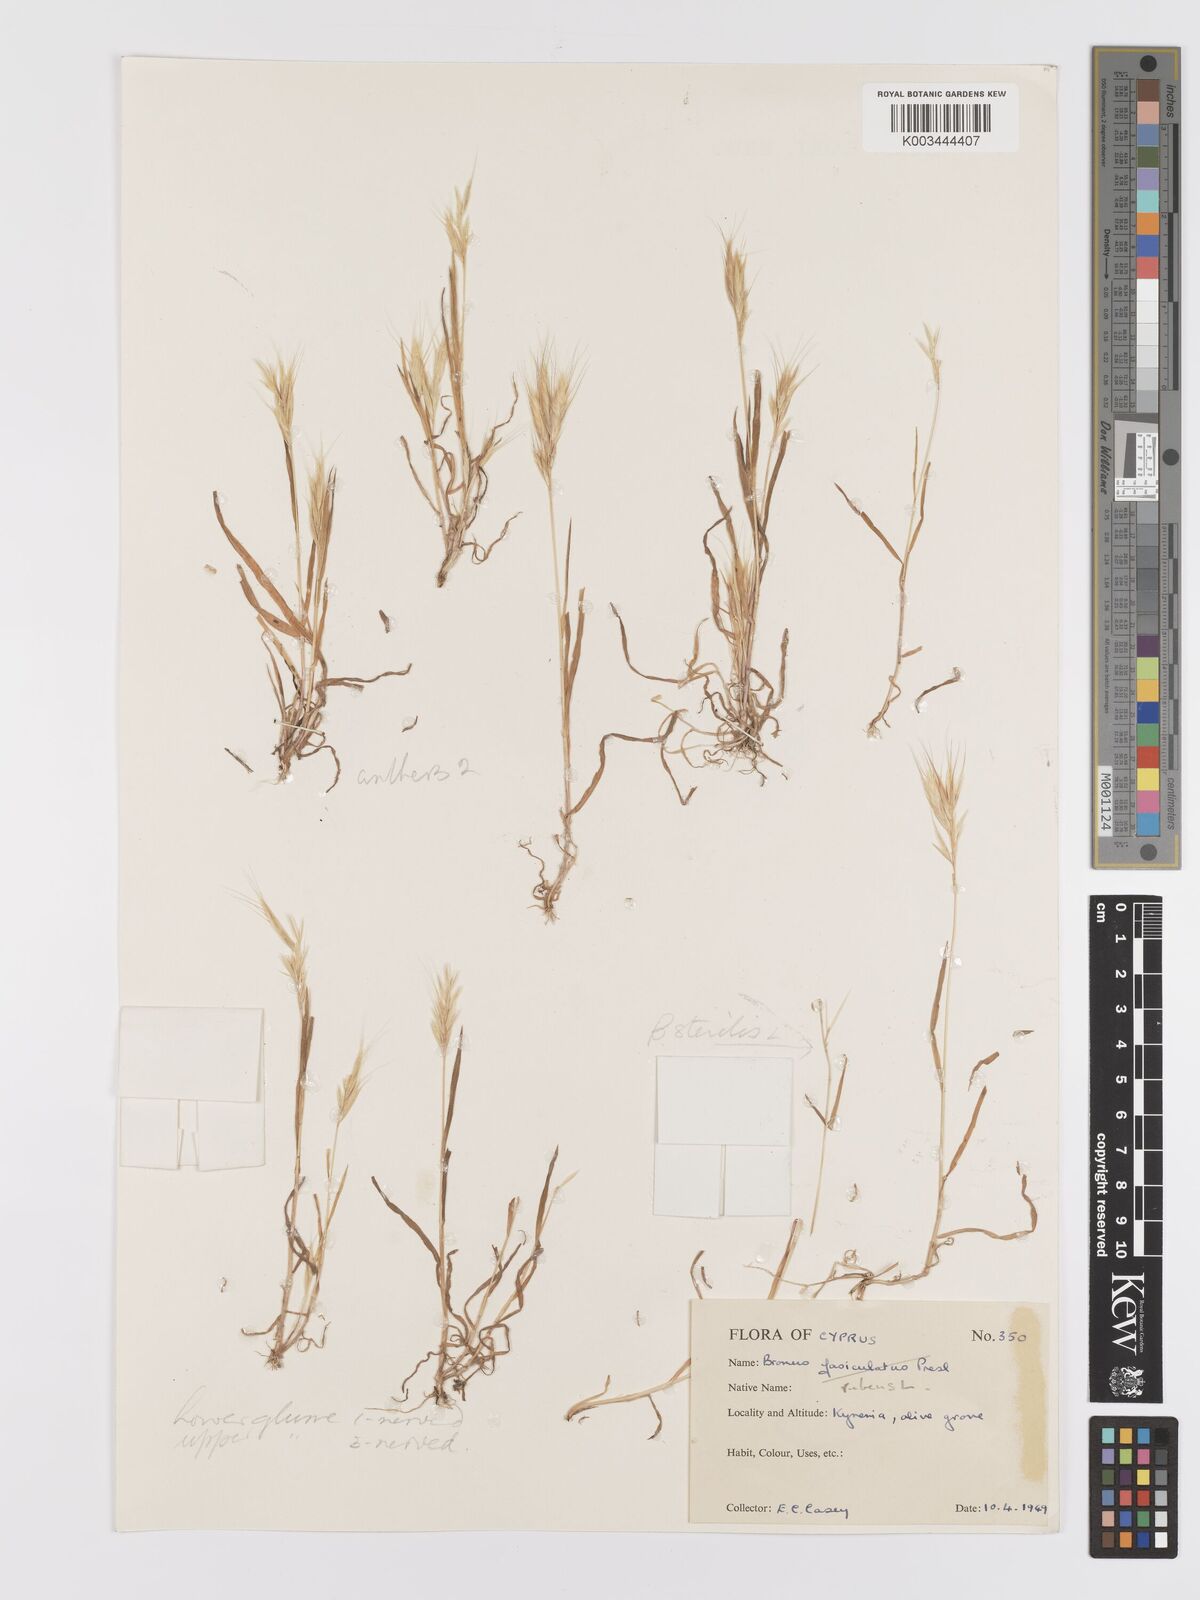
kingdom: Plantae
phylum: Tracheophyta
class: Liliopsida
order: Poales
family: Poaceae
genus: Bromus
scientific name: Bromus rubens
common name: Red brome
